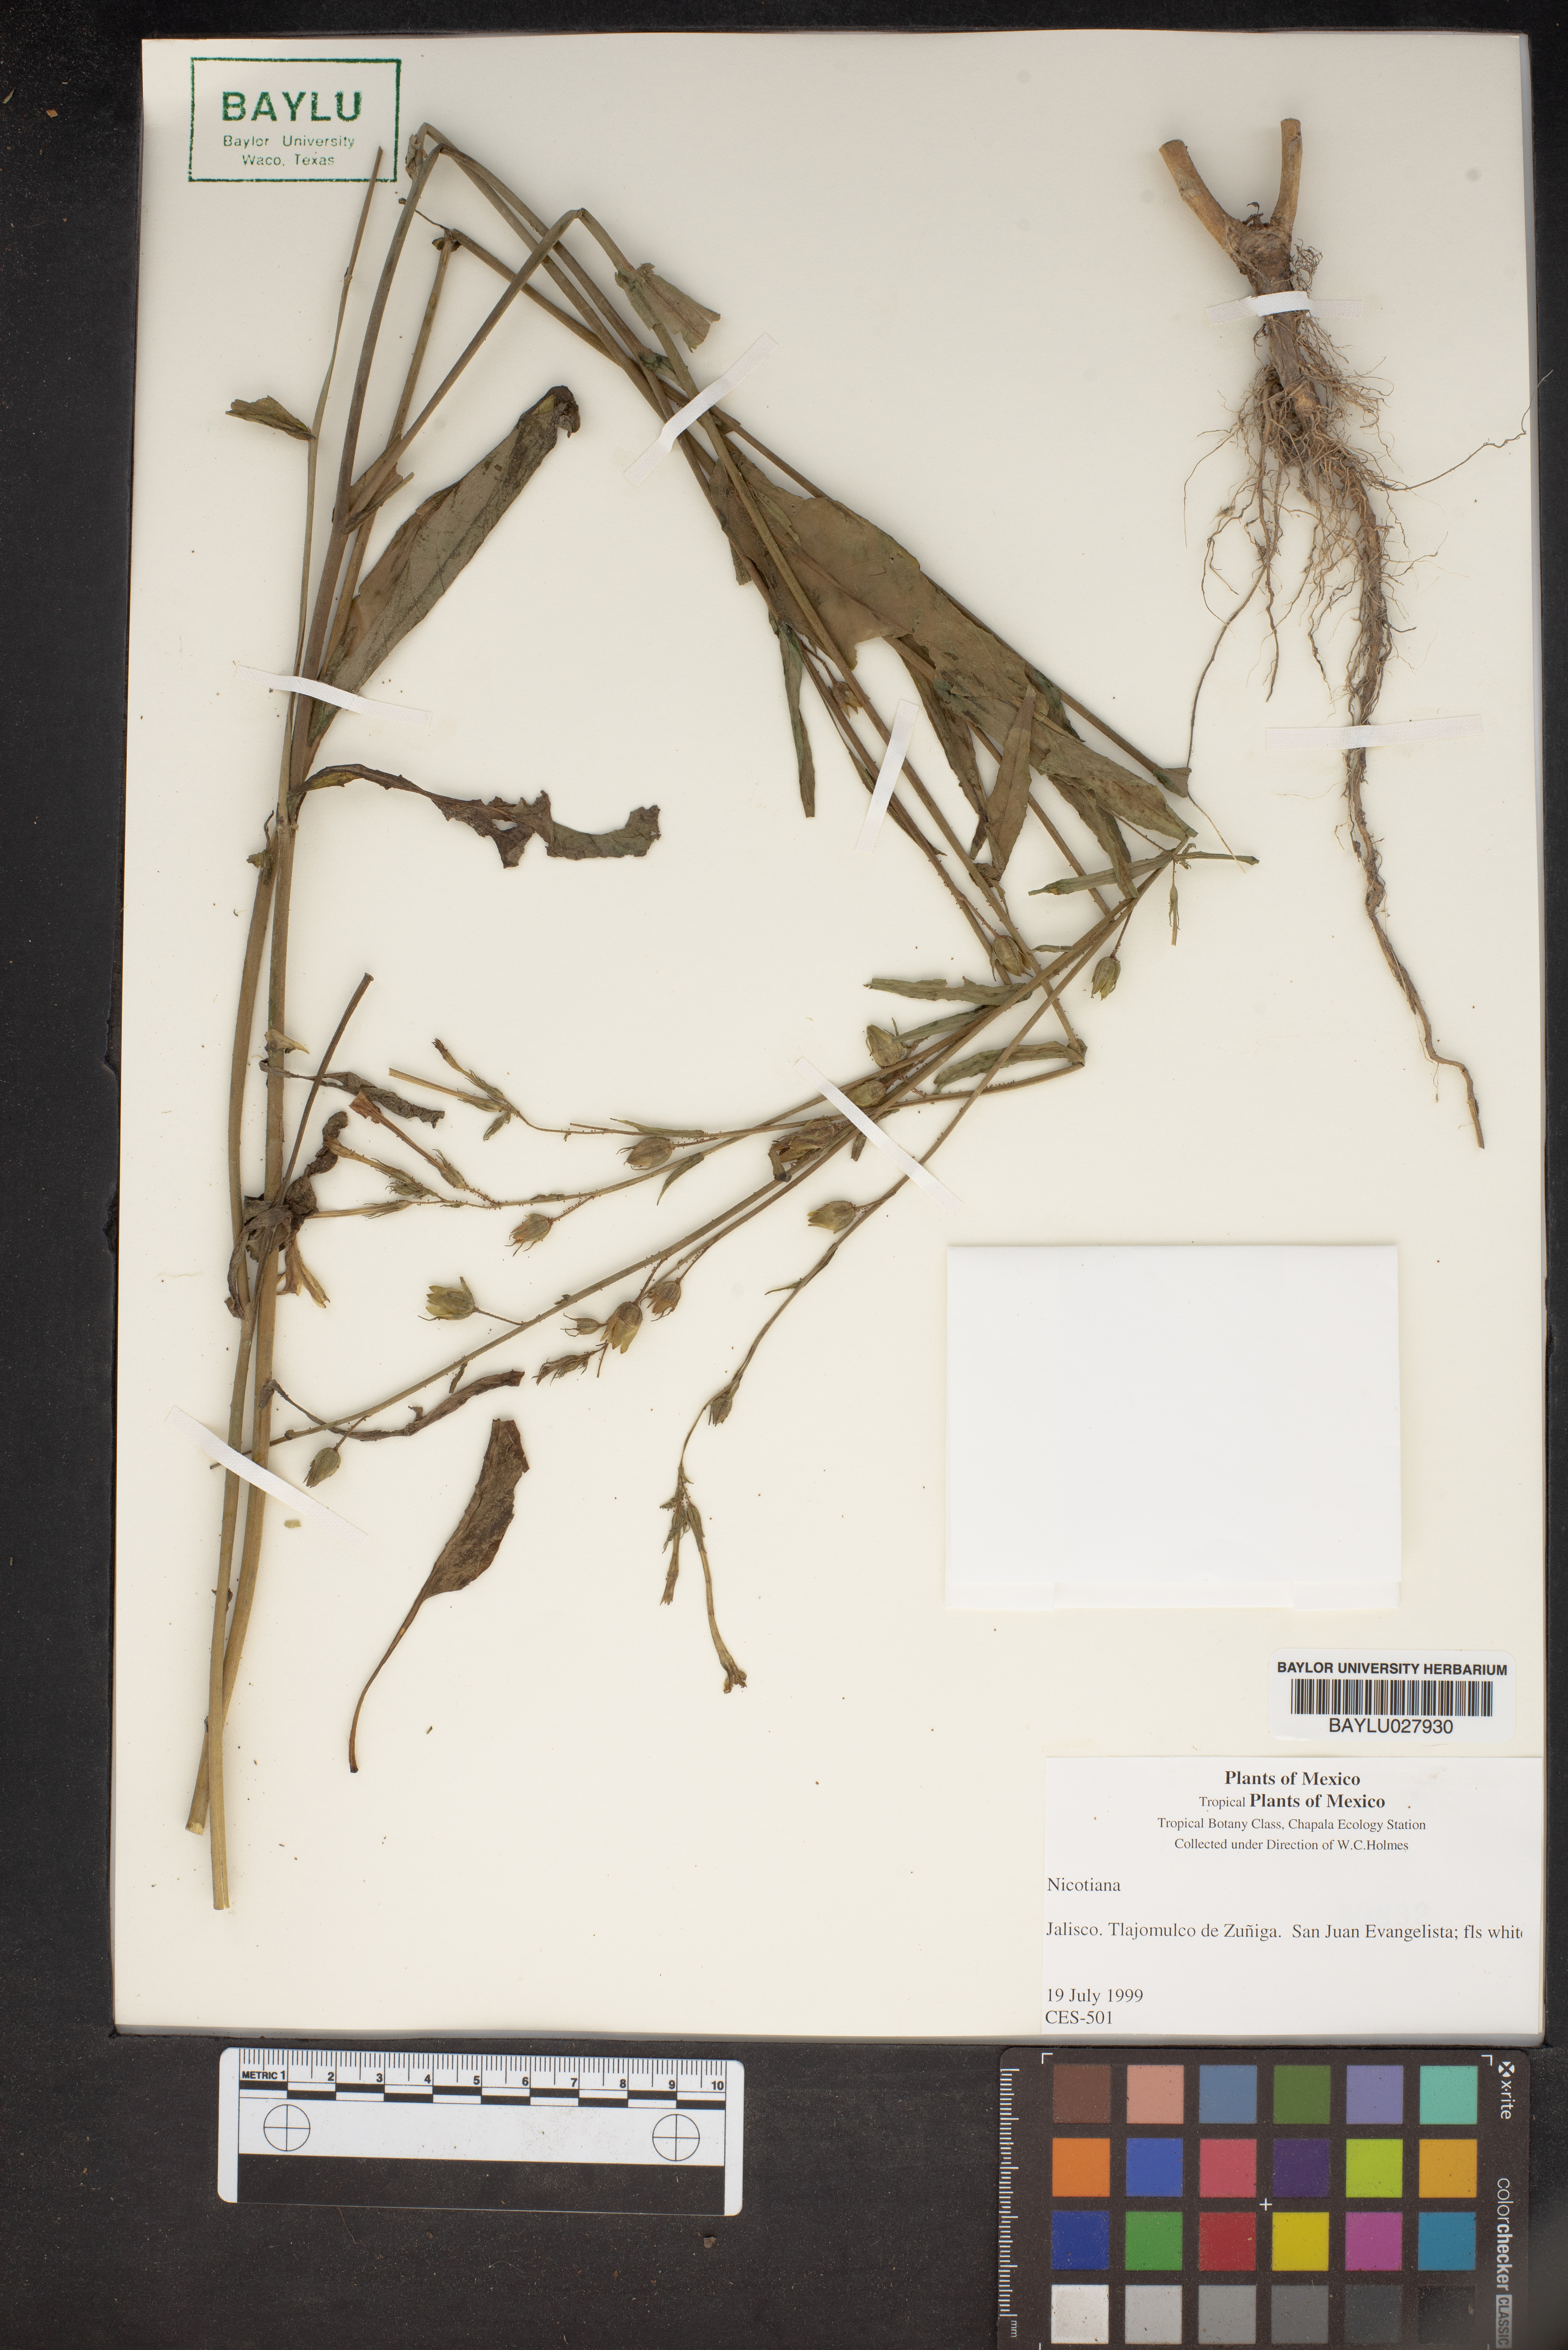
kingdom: Plantae
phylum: Tracheophyta
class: Magnoliopsida
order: Solanales
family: Solanaceae
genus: Nicotiana
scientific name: Nicotiana
